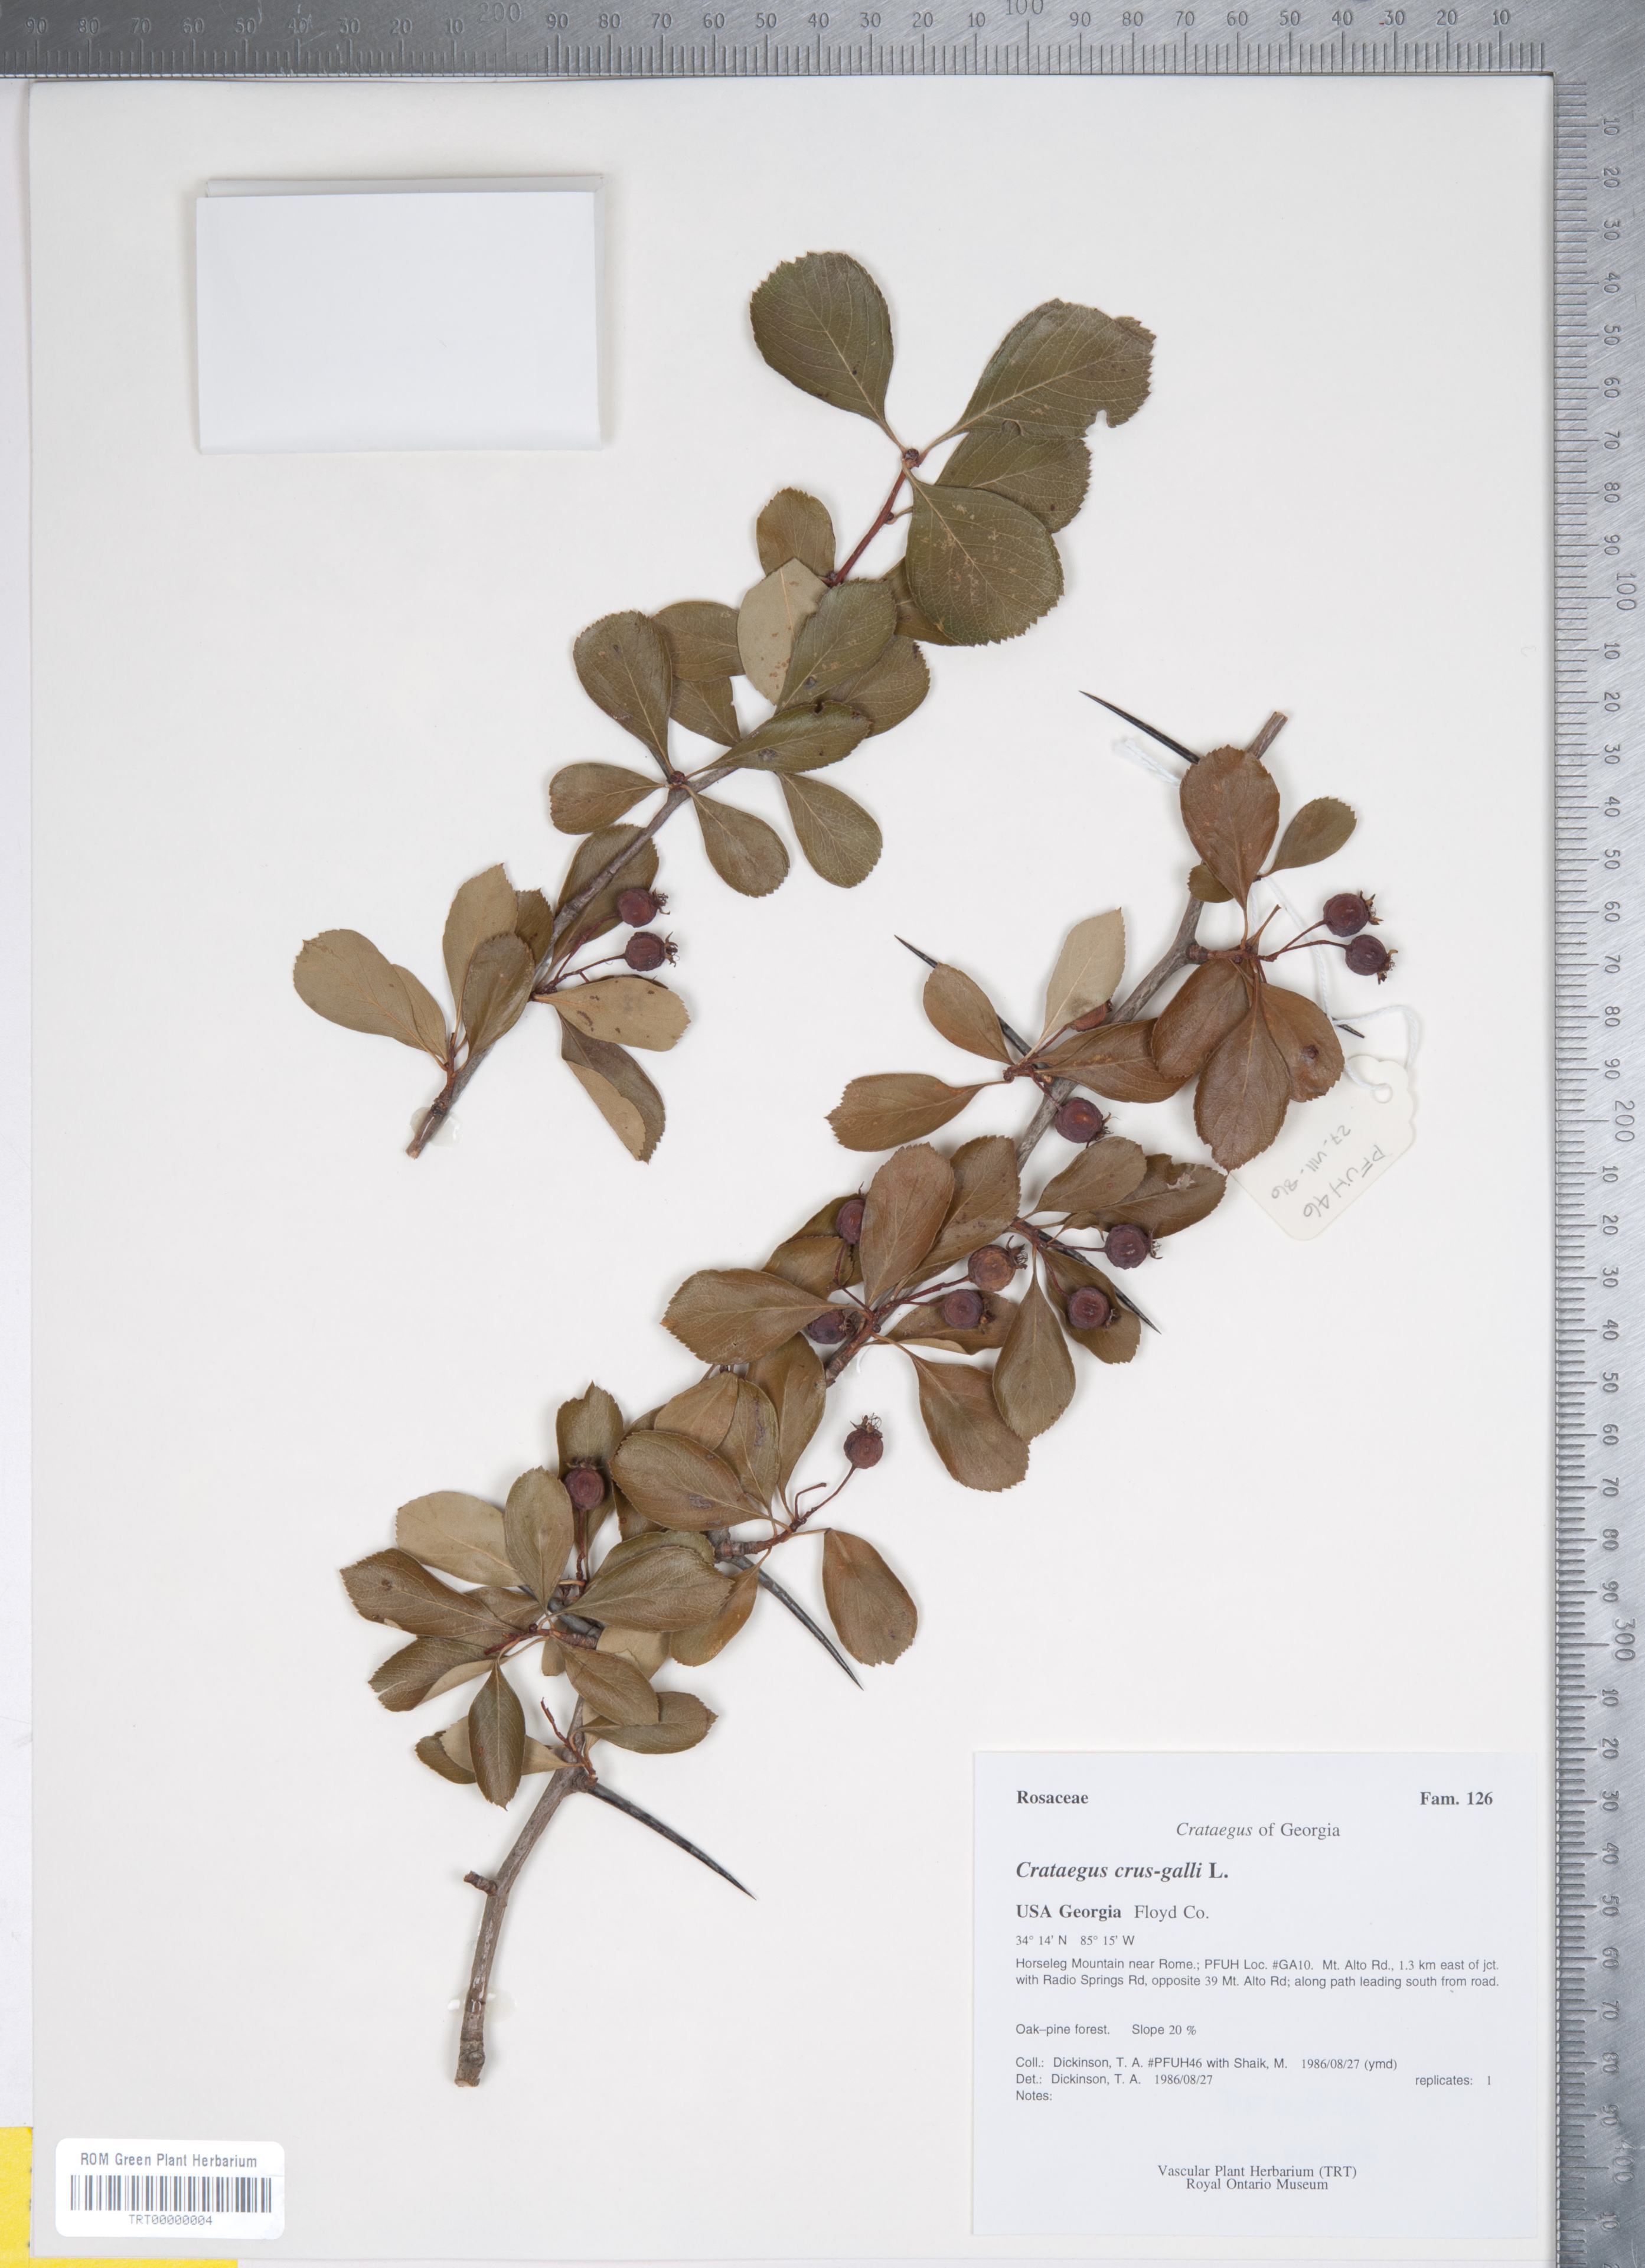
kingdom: Plantae
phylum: Tracheophyta
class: Magnoliopsida
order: Rosales
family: Rosaceae
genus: Crataegus
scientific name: Crataegus crus-galli
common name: Cockspurthorn
